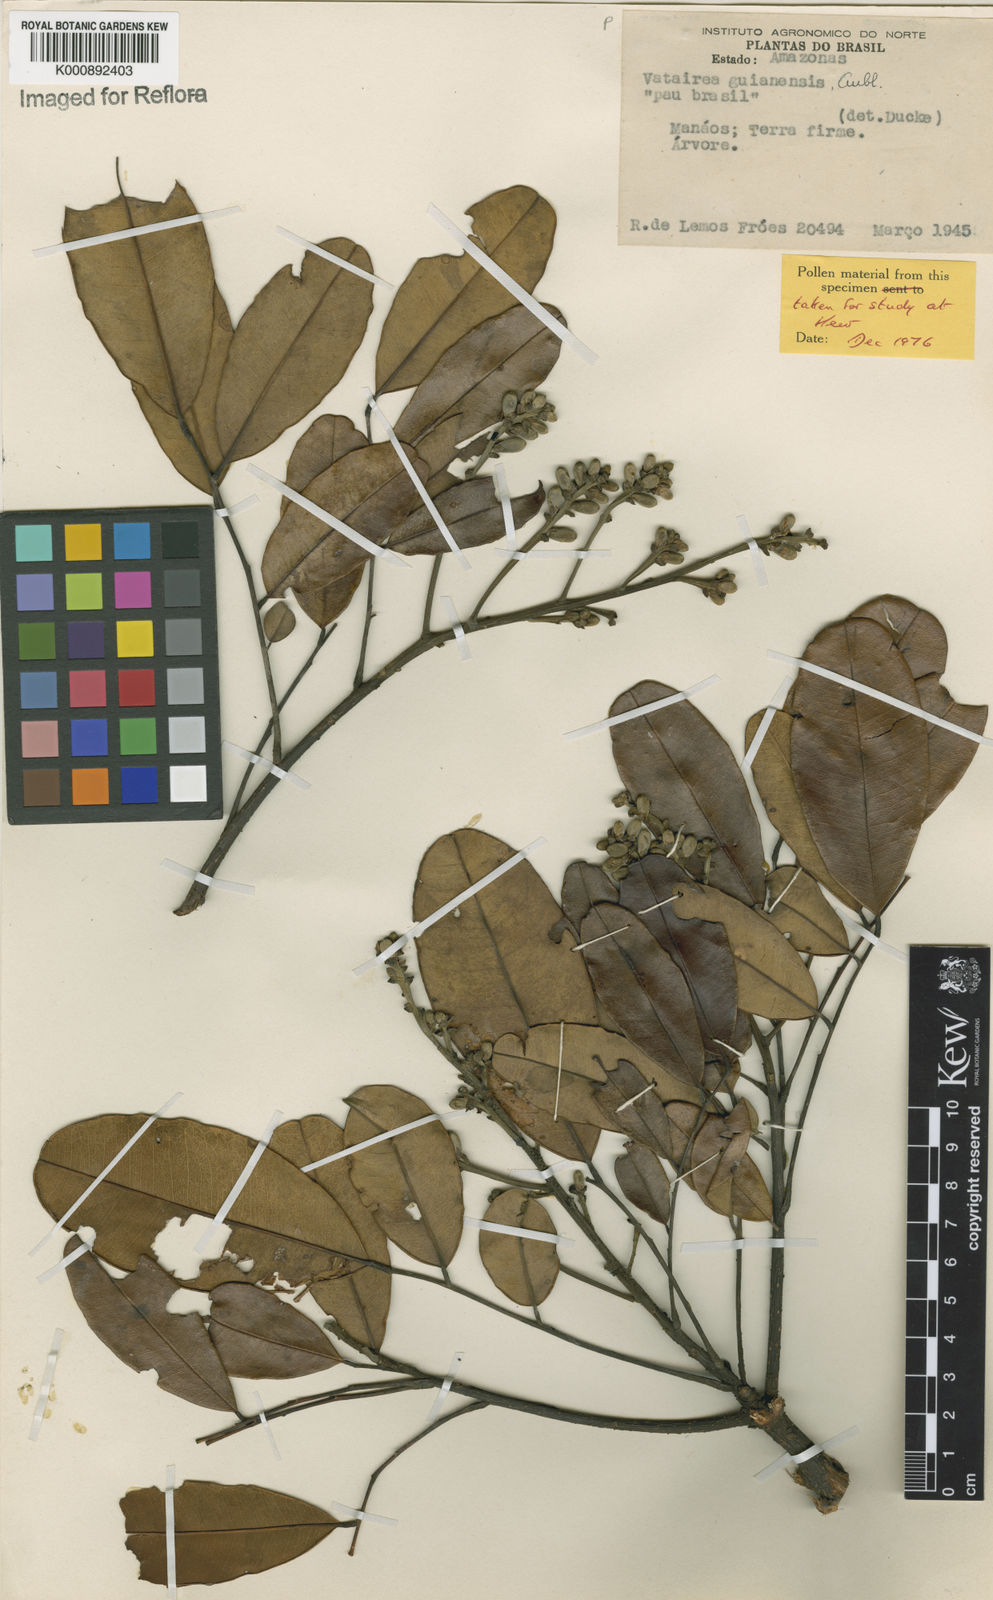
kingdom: Plantae
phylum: Tracheophyta
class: Magnoliopsida
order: Fabales
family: Fabaceae
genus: Vatairea
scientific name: Vatairea guianensis
